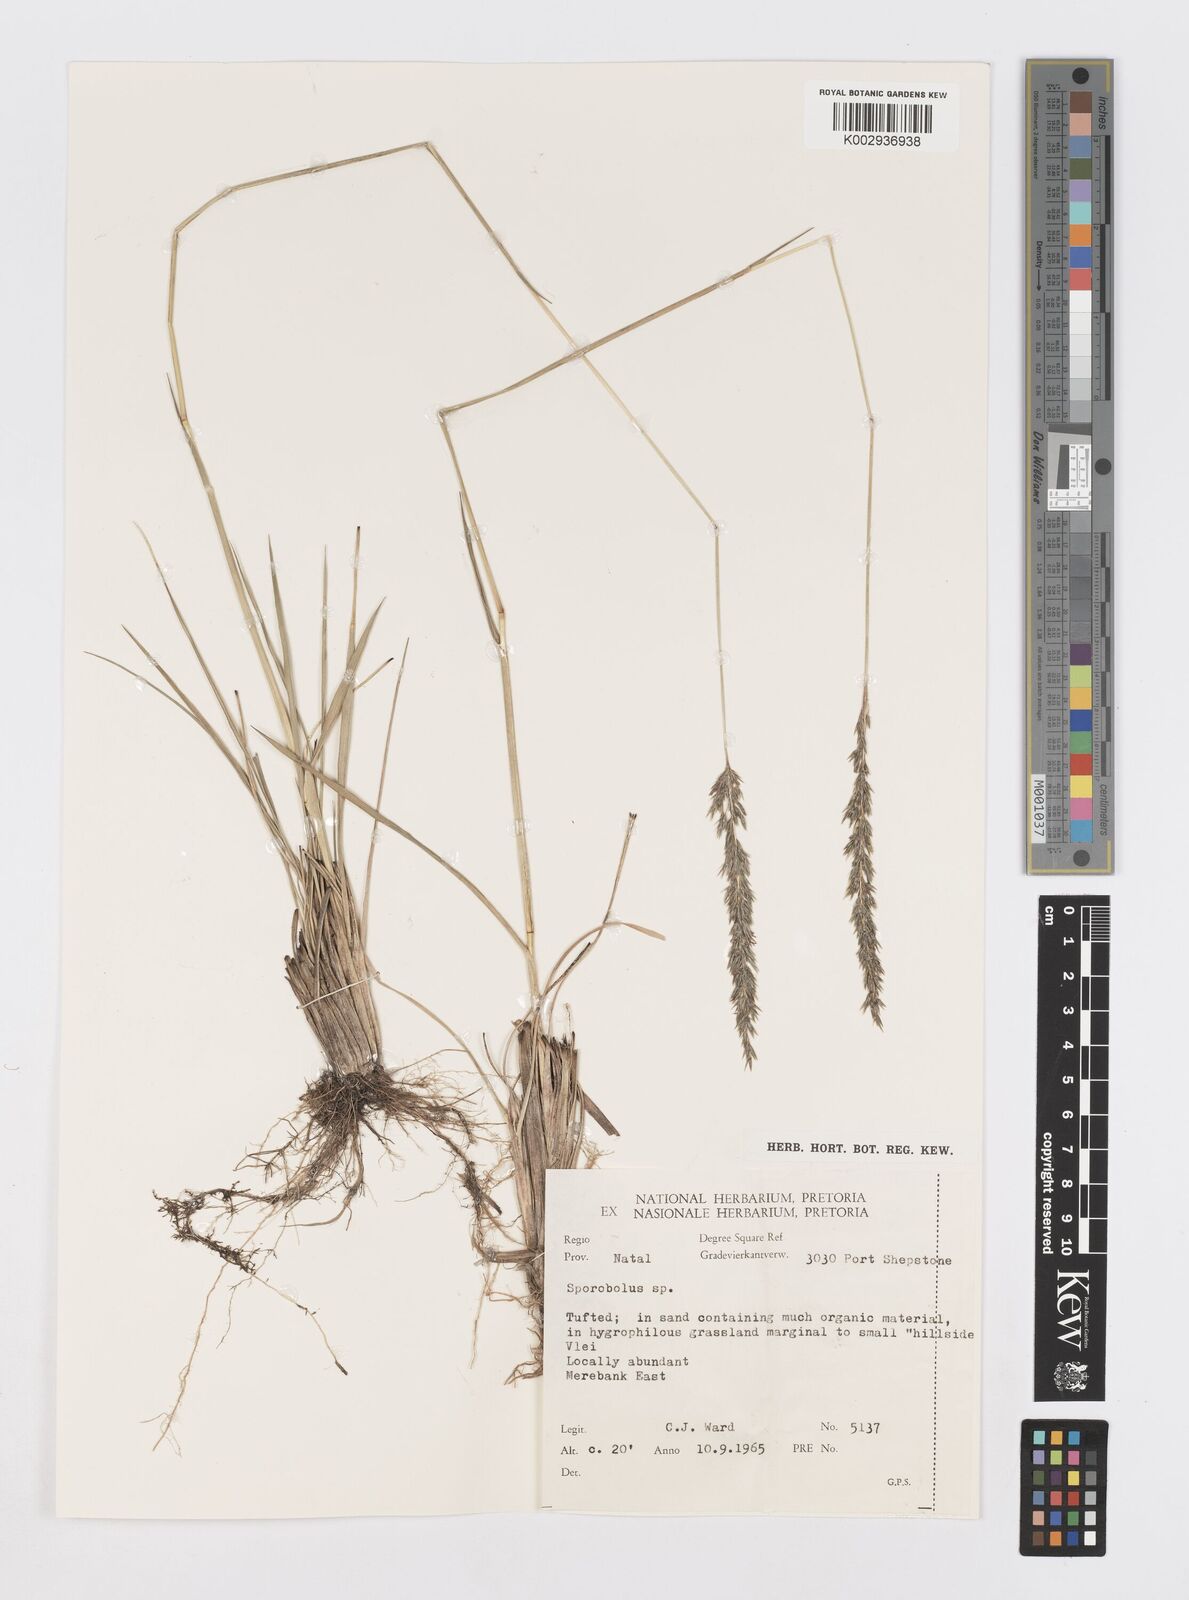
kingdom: Plantae
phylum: Tracheophyta
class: Liliopsida
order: Poales
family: Poaceae
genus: Sporobolus
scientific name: Sporobolus congoensis
